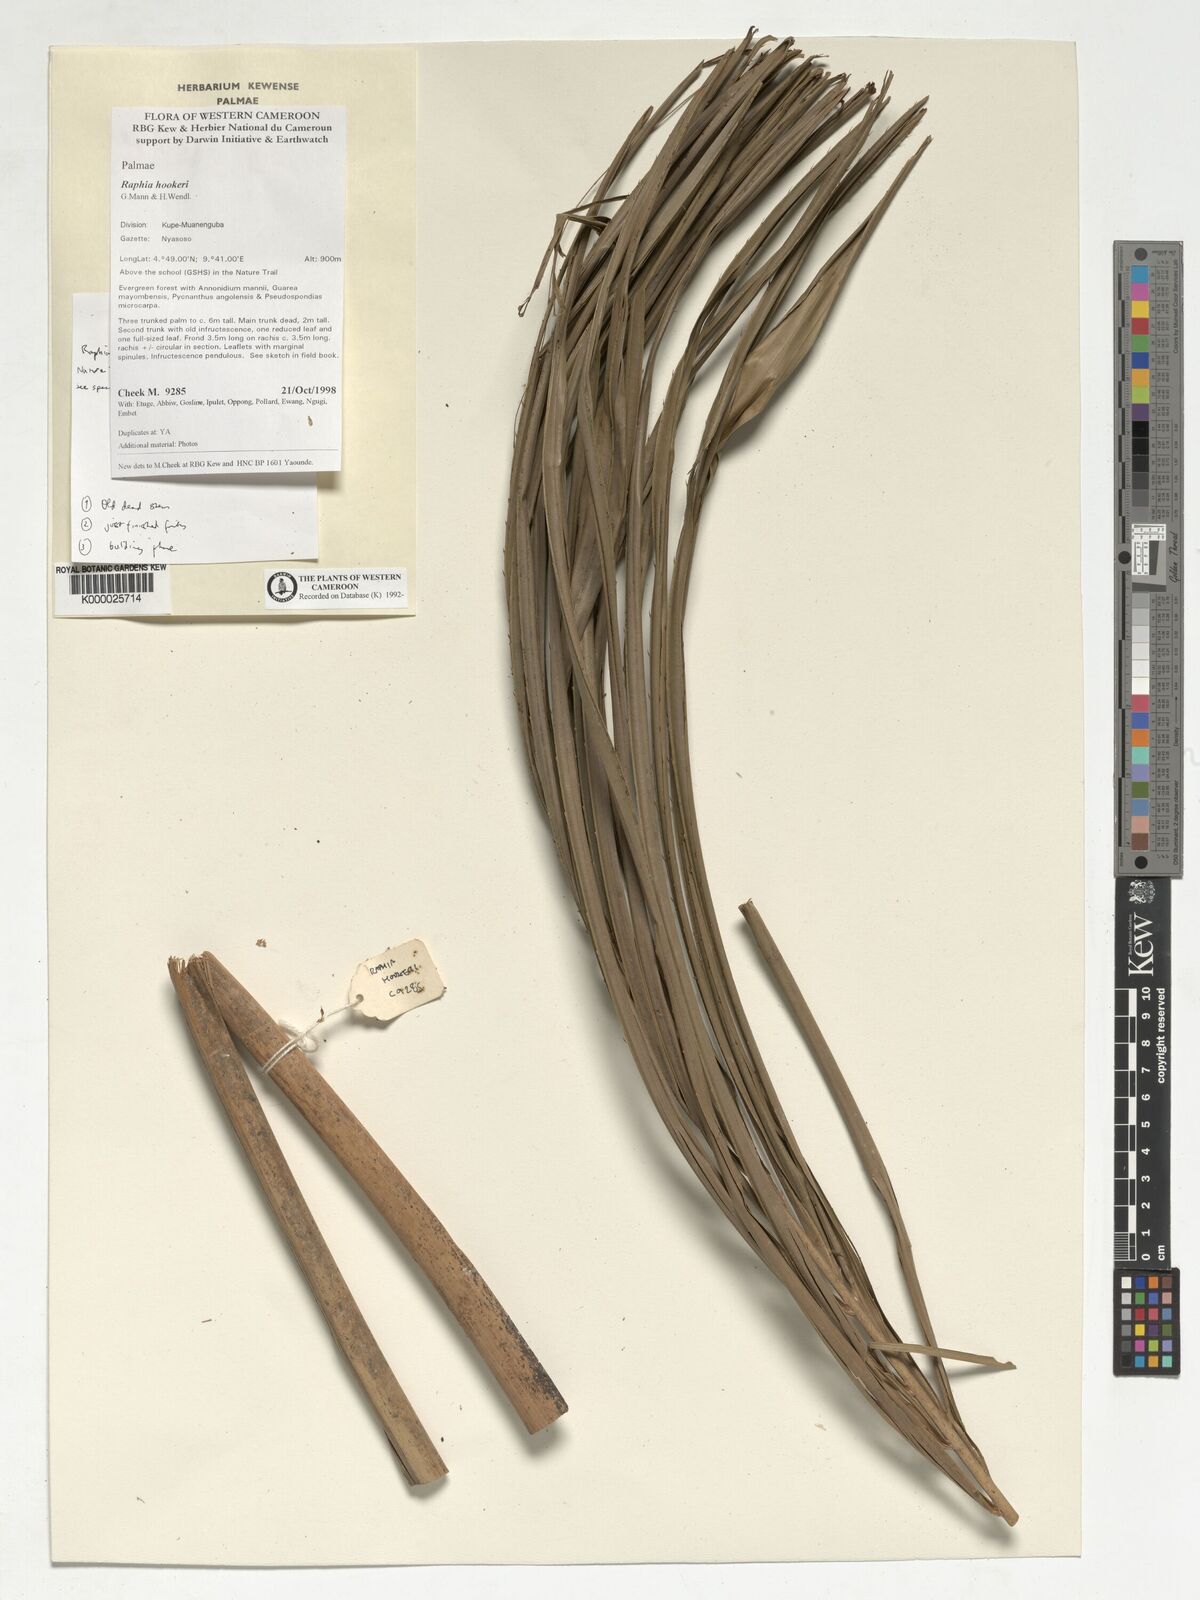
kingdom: Plantae
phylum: Tracheophyta
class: Liliopsida
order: Arecales
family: Arecaceae
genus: Raphia
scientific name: Raphia hookeri
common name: Wine palm
